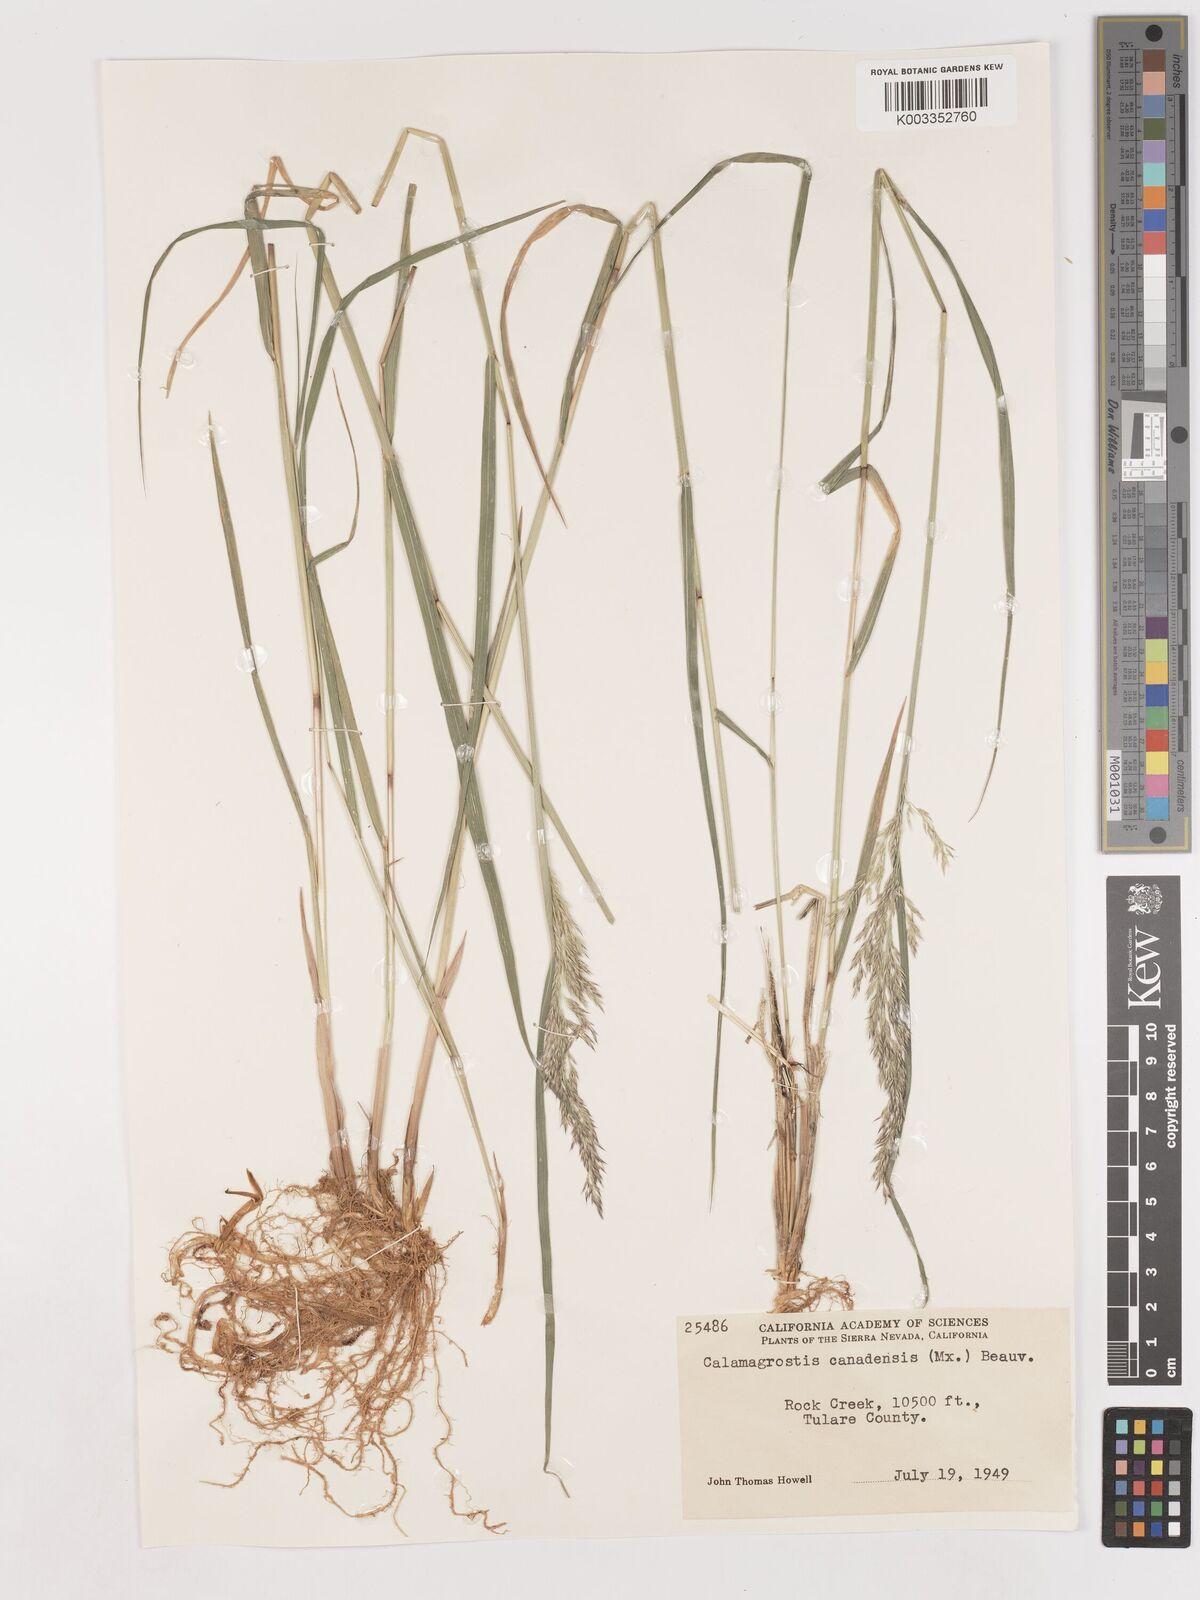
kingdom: Plantae
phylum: Tracheophyta
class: Liliopsida
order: Poales
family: Poaceae
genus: Calamagrostis
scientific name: Calamagrostis canadensis
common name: Canada bluejoint
